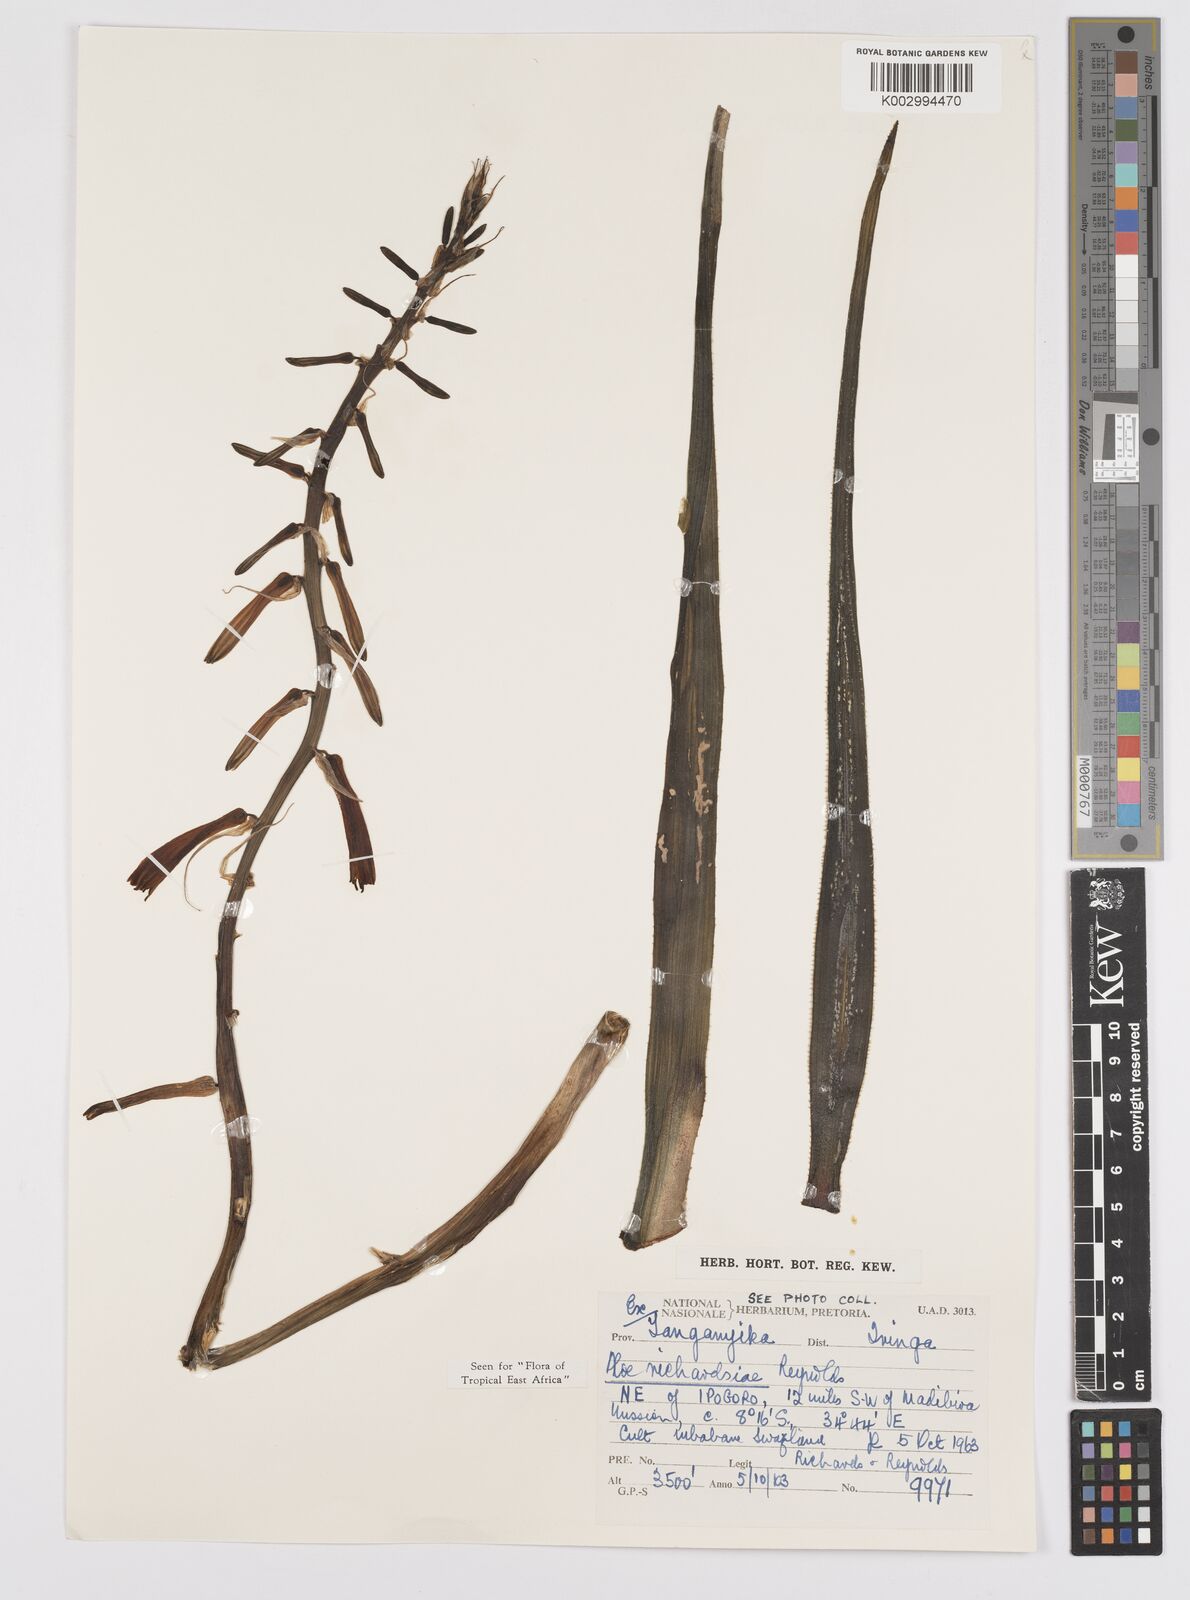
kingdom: Plantae
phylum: Tracheophyta
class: Liliopsida
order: Asparagales
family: Asphodelaceae
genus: Aloe
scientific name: Aloe richardsiae
